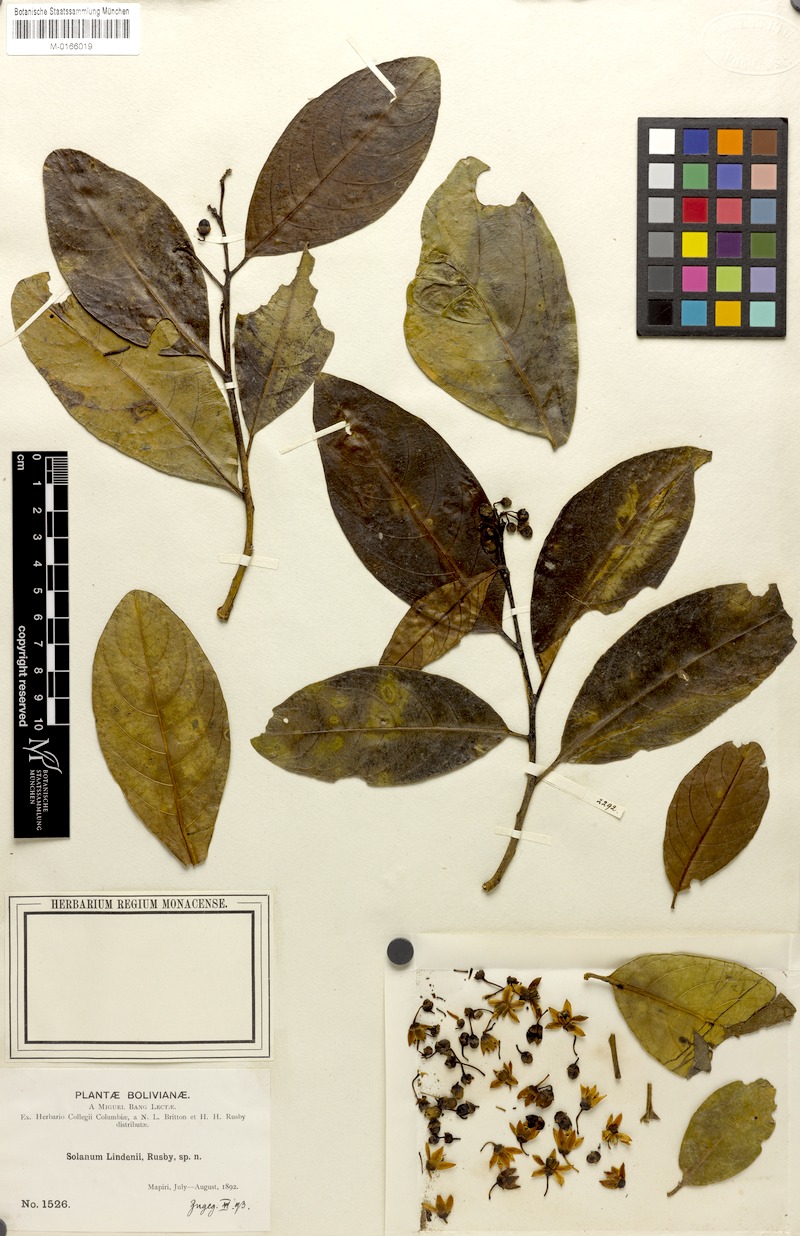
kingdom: Plantae
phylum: Tracheophyta
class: Magnoliopsida
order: Solanales
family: Solanaceae
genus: Solanum
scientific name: Solanum lindenii
